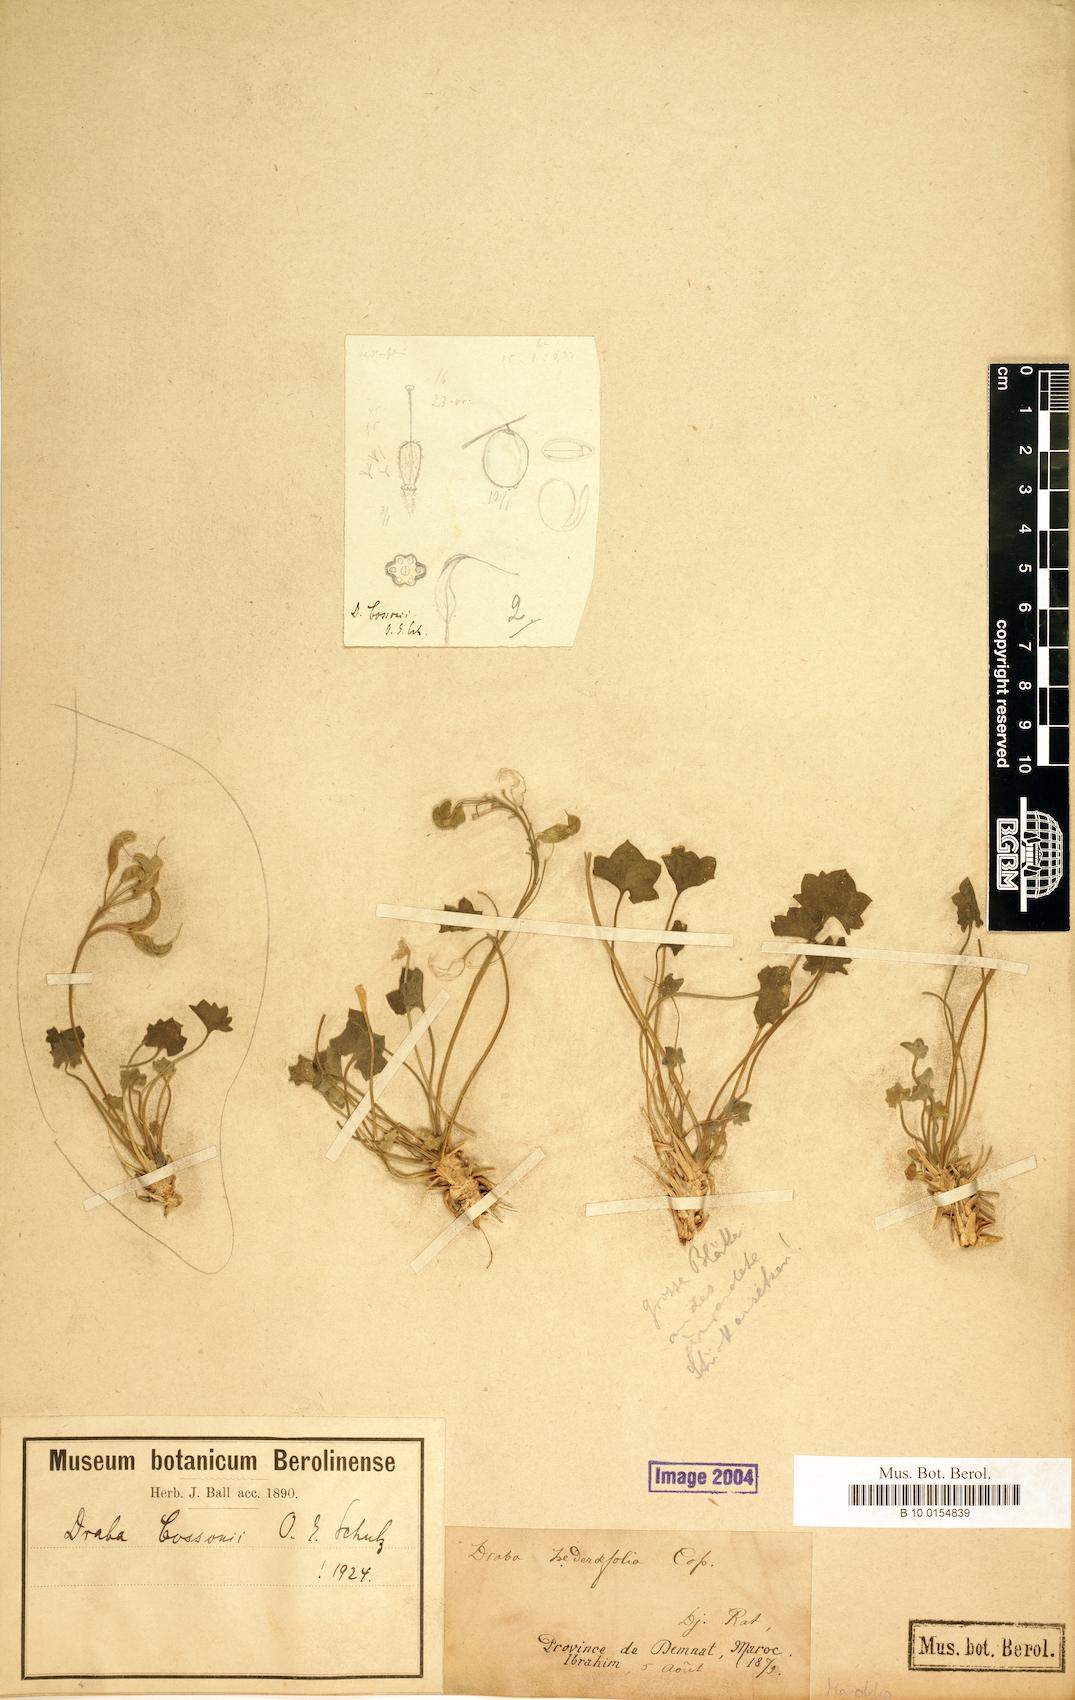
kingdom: Plantae
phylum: Tracheophyta
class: Magnoliopsida
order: Brassicales
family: Brassicaceae
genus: Draba
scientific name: Draba hederifolia
